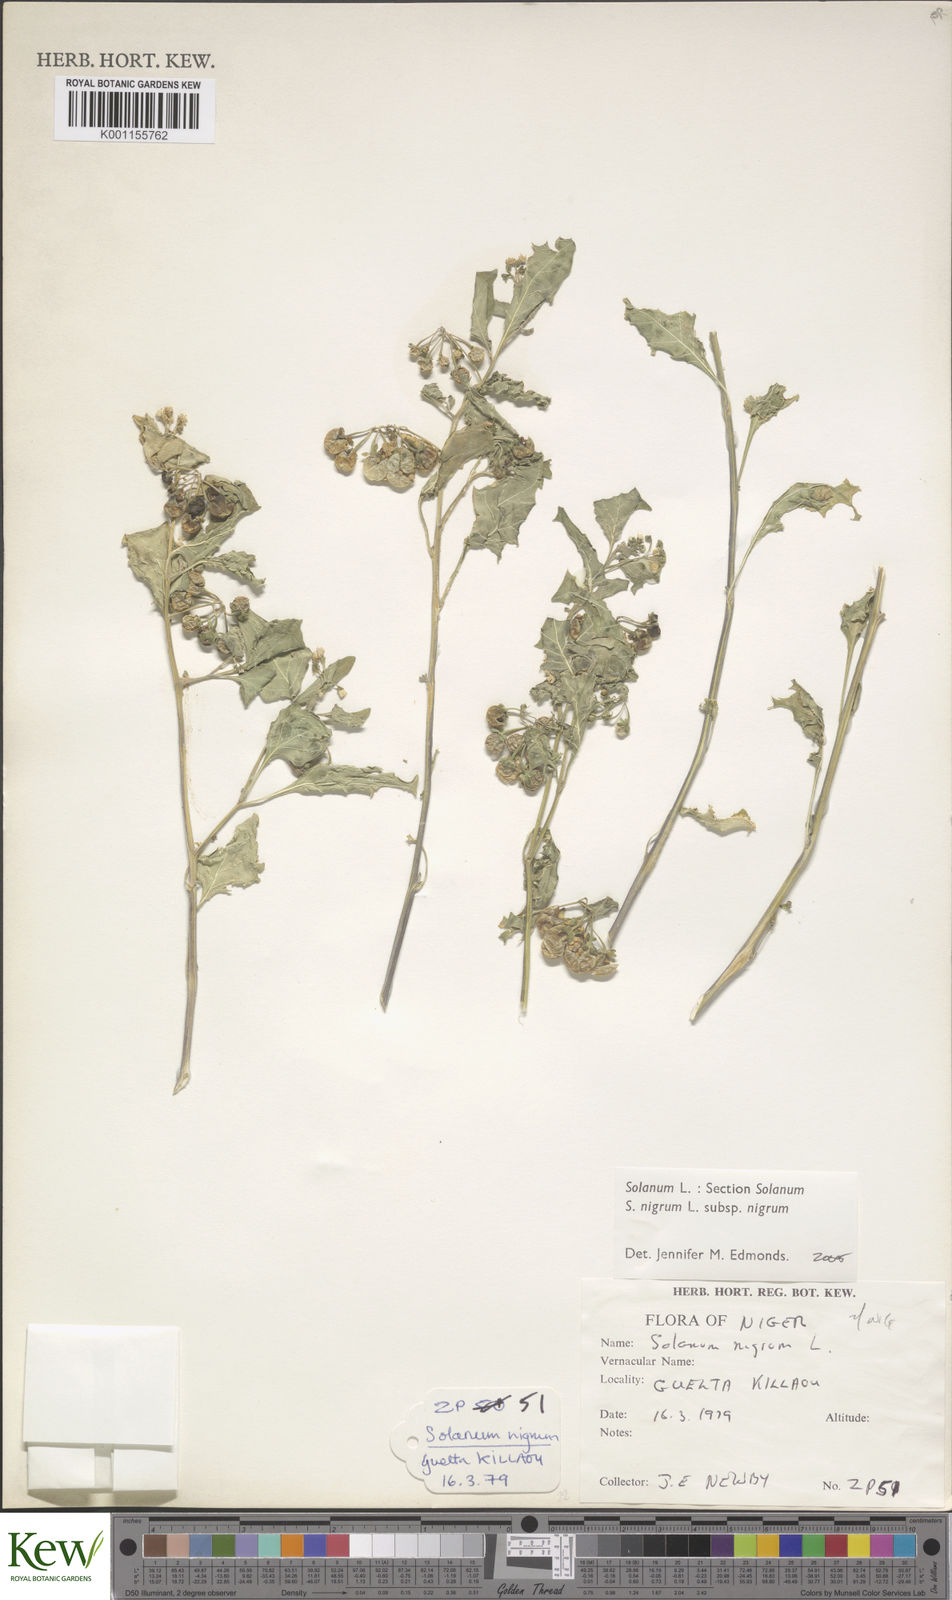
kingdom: Plantae
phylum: Tracheophyta
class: Magnoliopsida
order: Solanales
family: Solanaceae
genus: Solanum
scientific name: Solanum nigrum
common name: Black nightshade
